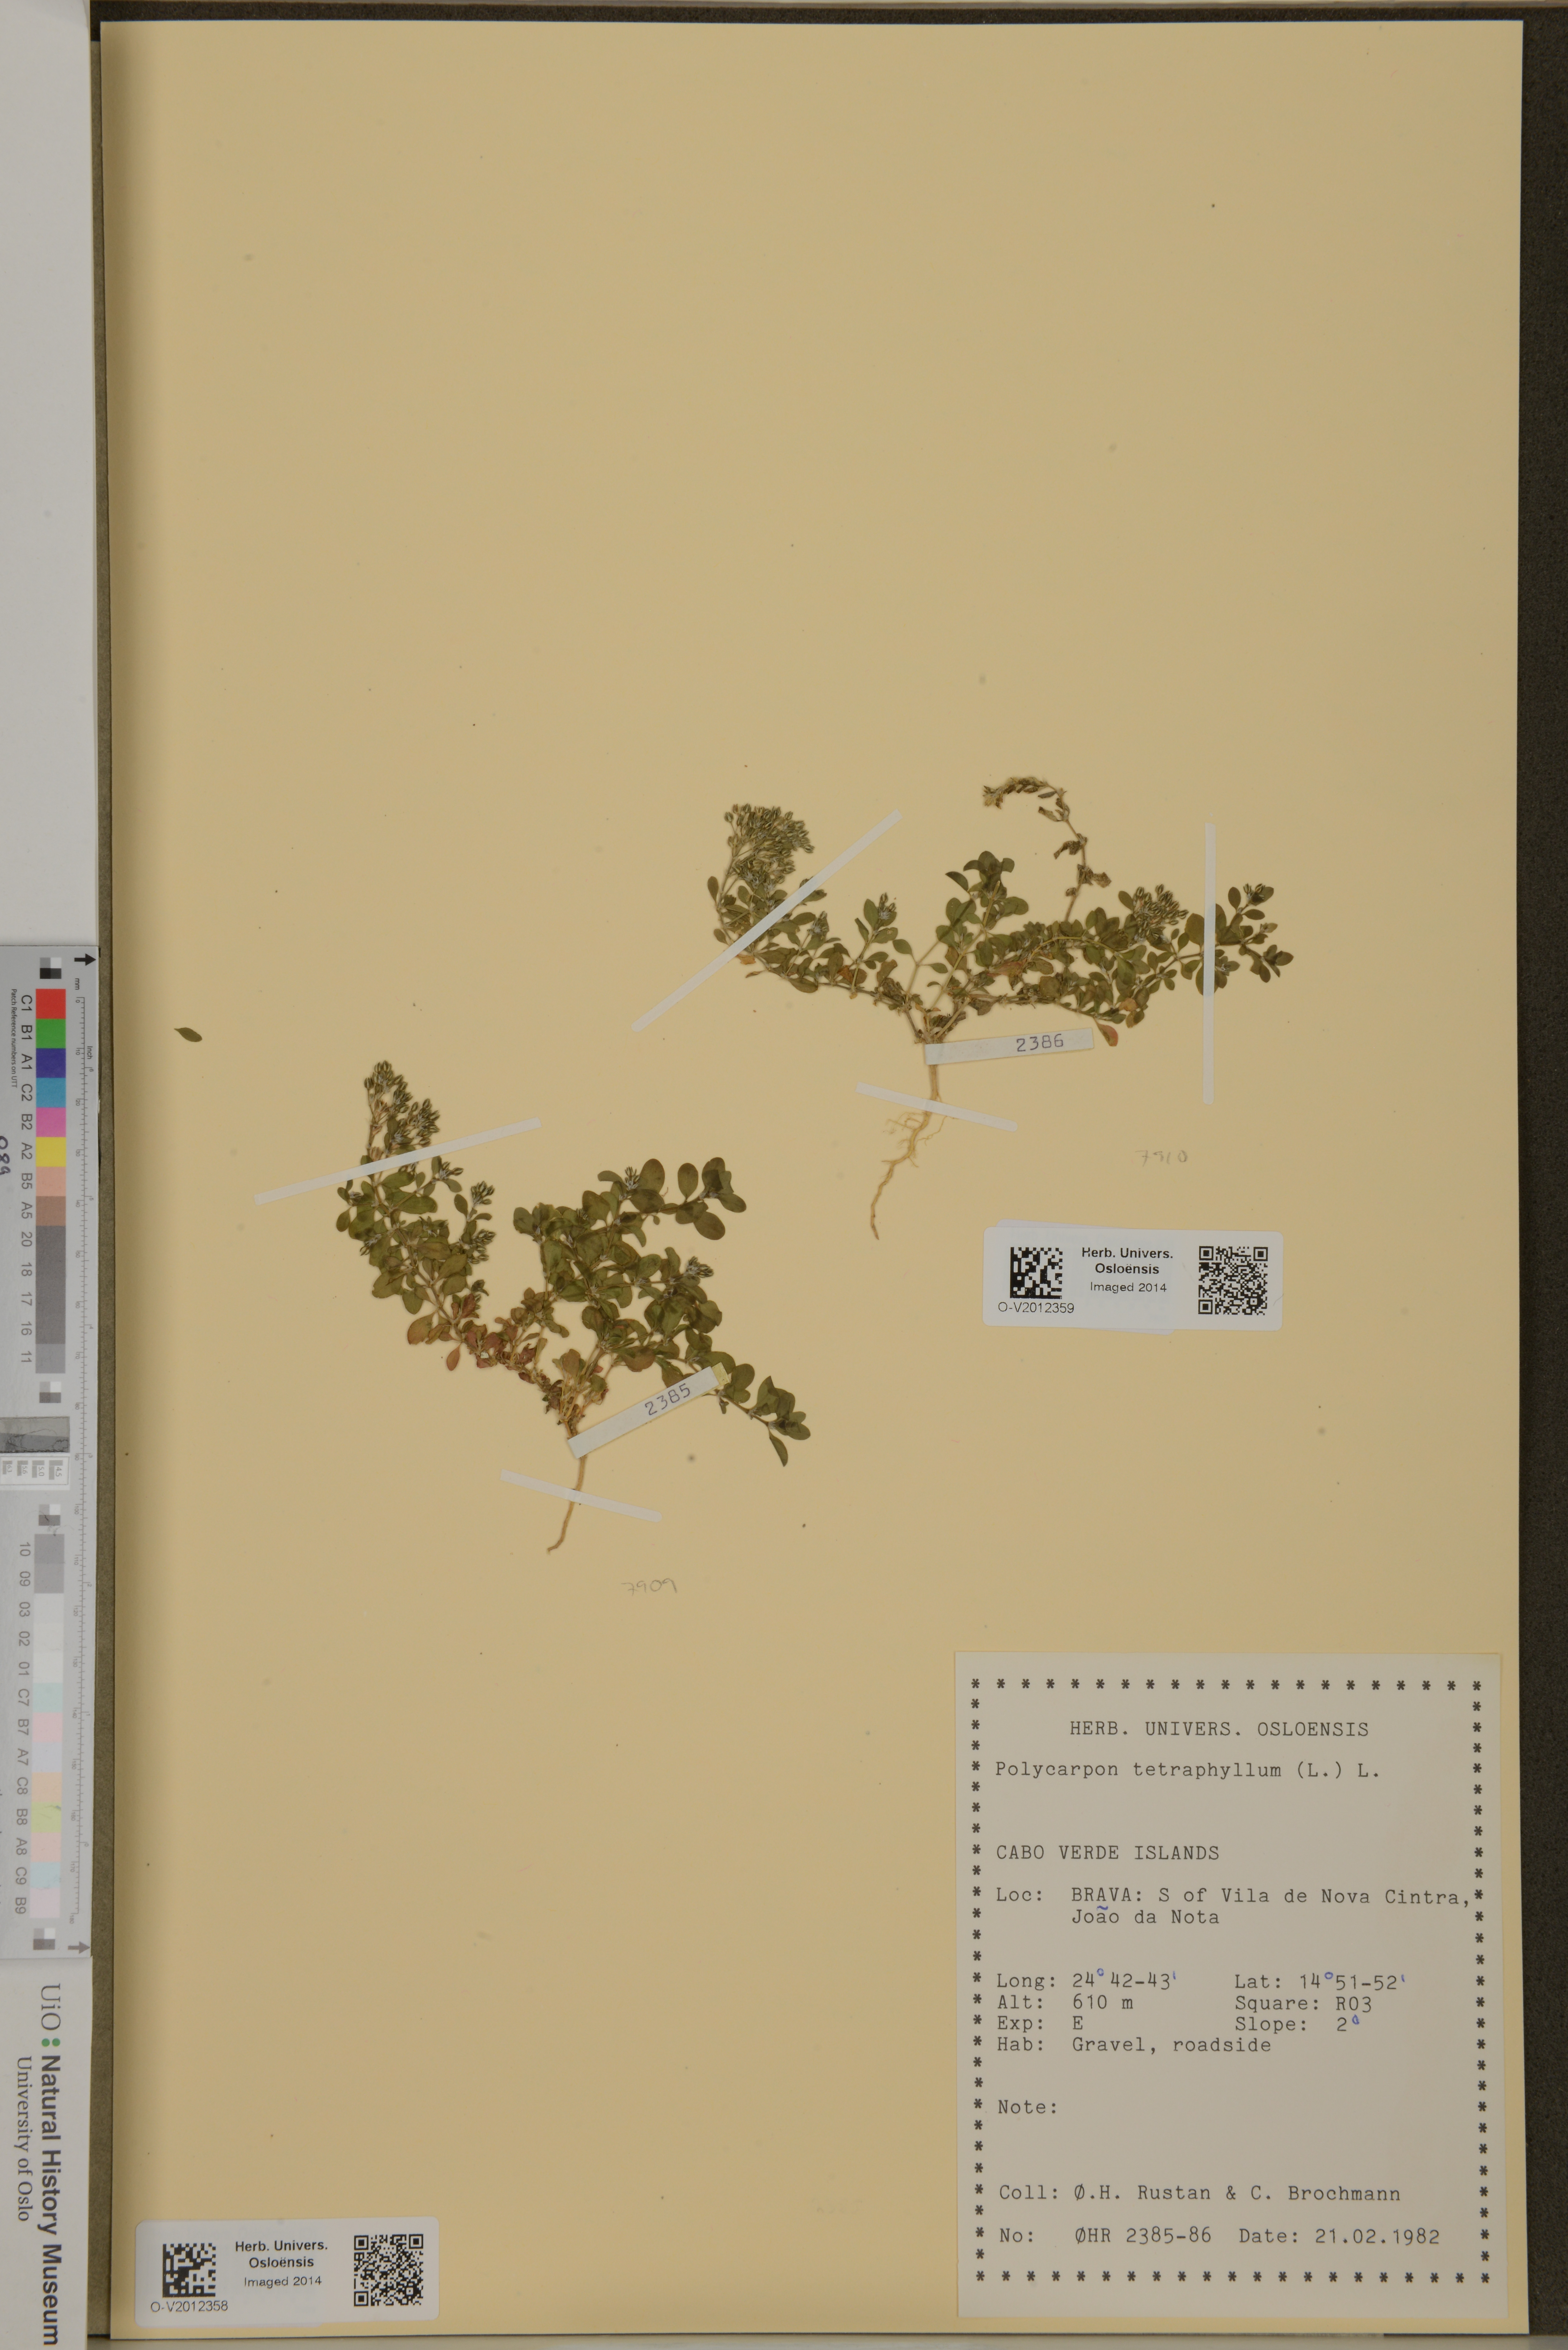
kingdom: Plantae
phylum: Tracheophyta
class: Magnoliopsida
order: Caryophyllales
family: Caryophyllaceae
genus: Polycarpon
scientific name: Polycarpon tetraphyllum
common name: Four-leaved all-seed
